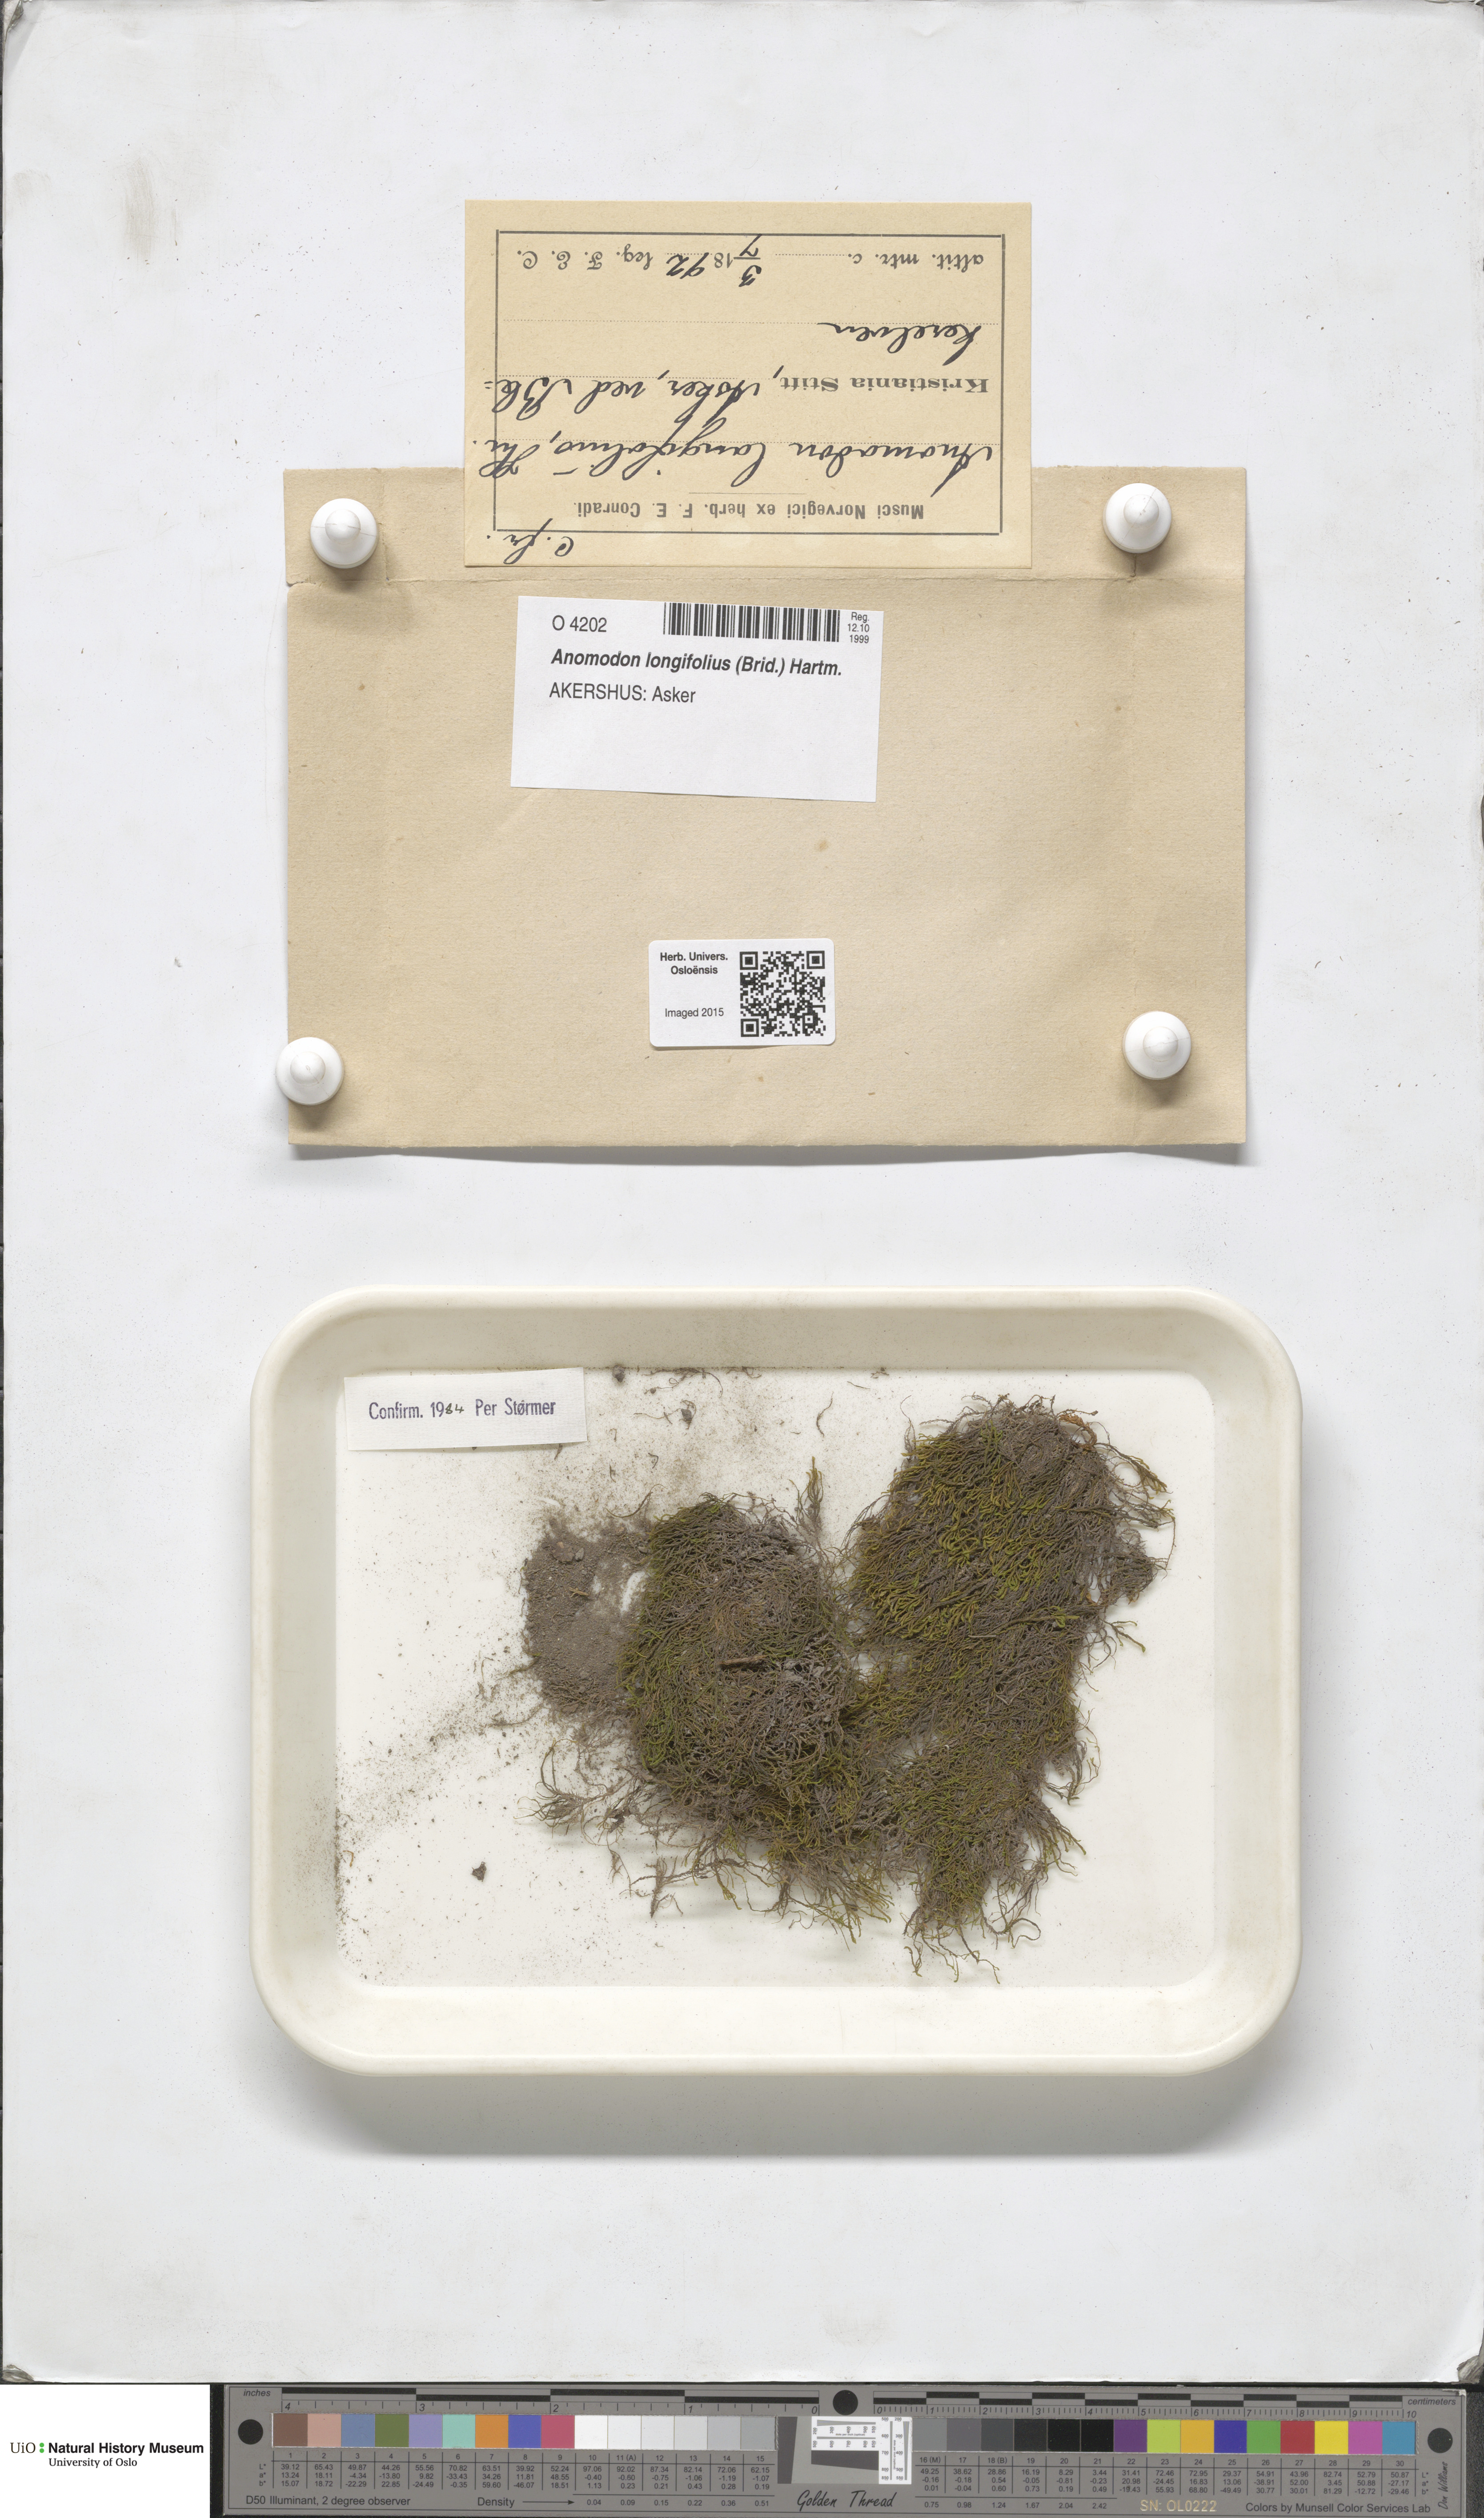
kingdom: Plantae
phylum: Bryophyta
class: Bryopsida
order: Hypnales
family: Anomodontaceae
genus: Anomodontella
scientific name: Anomodontella longifolia
